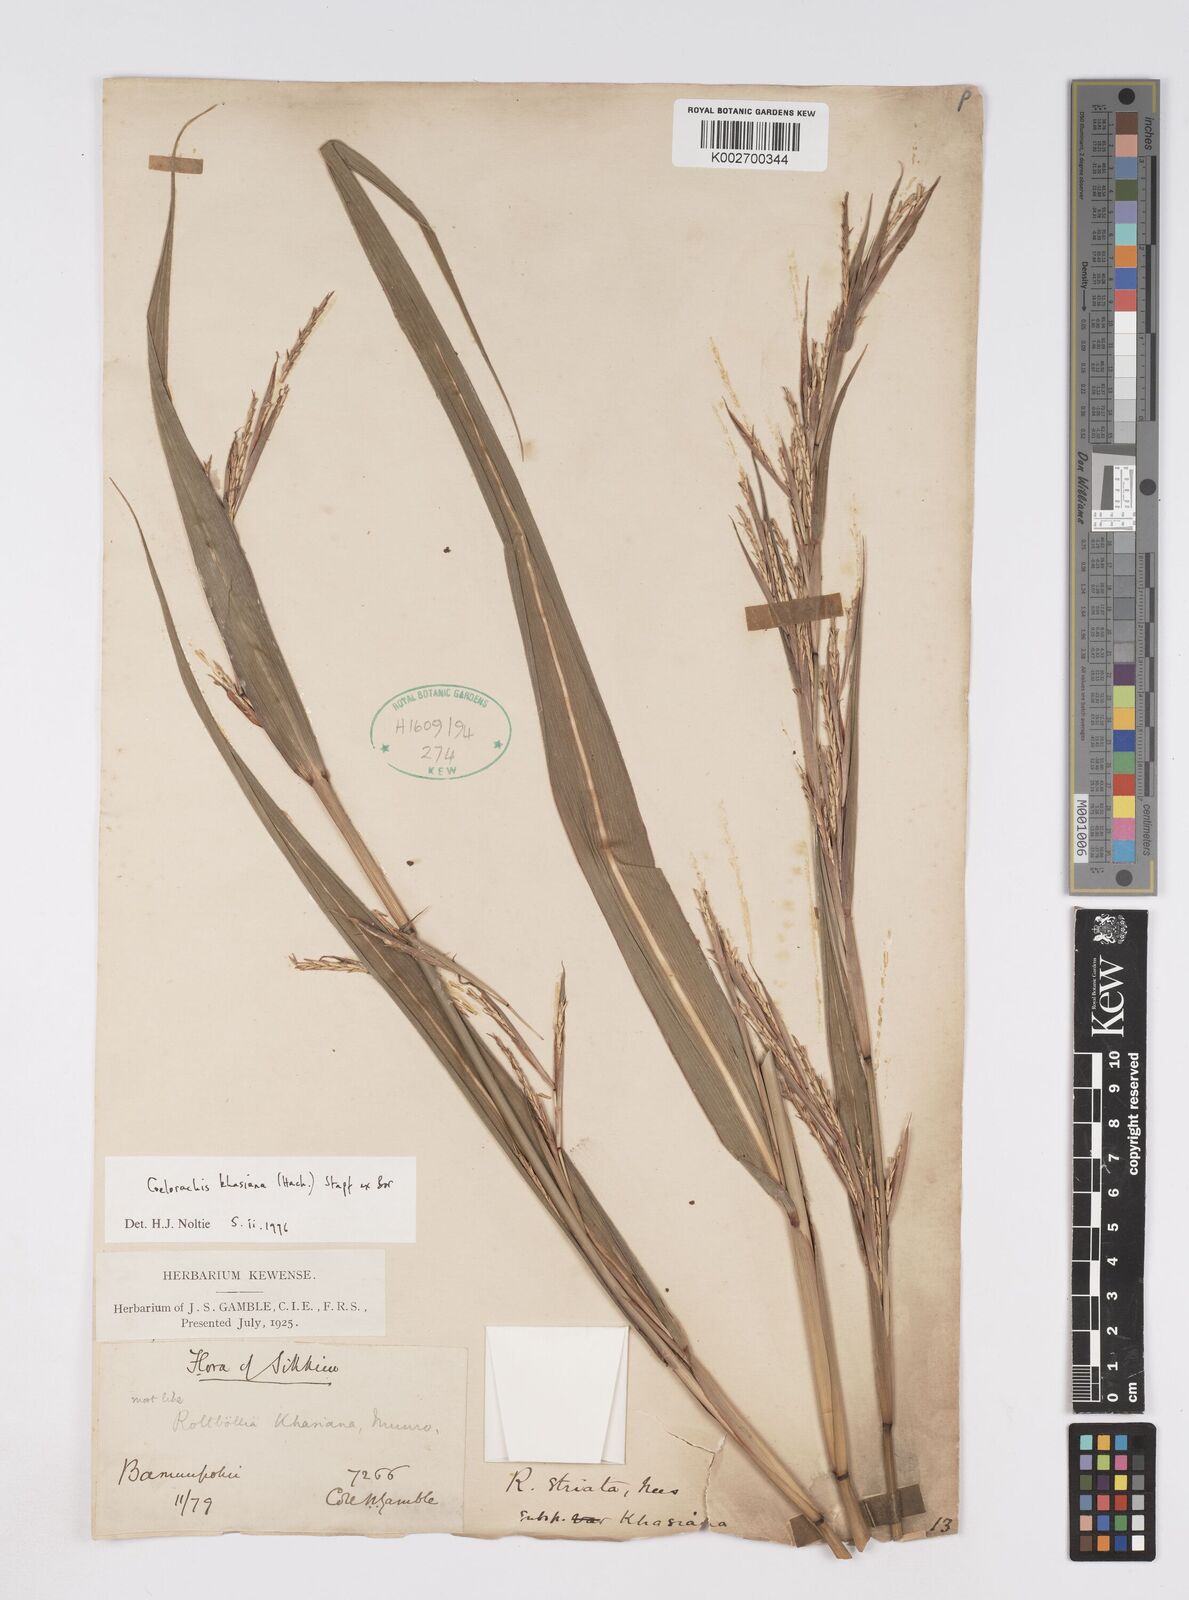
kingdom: Plantae
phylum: Tracheophyta
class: Liliopsida
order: Poales
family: Poaceae
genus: Rottboellia
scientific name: Rottboellia striata
